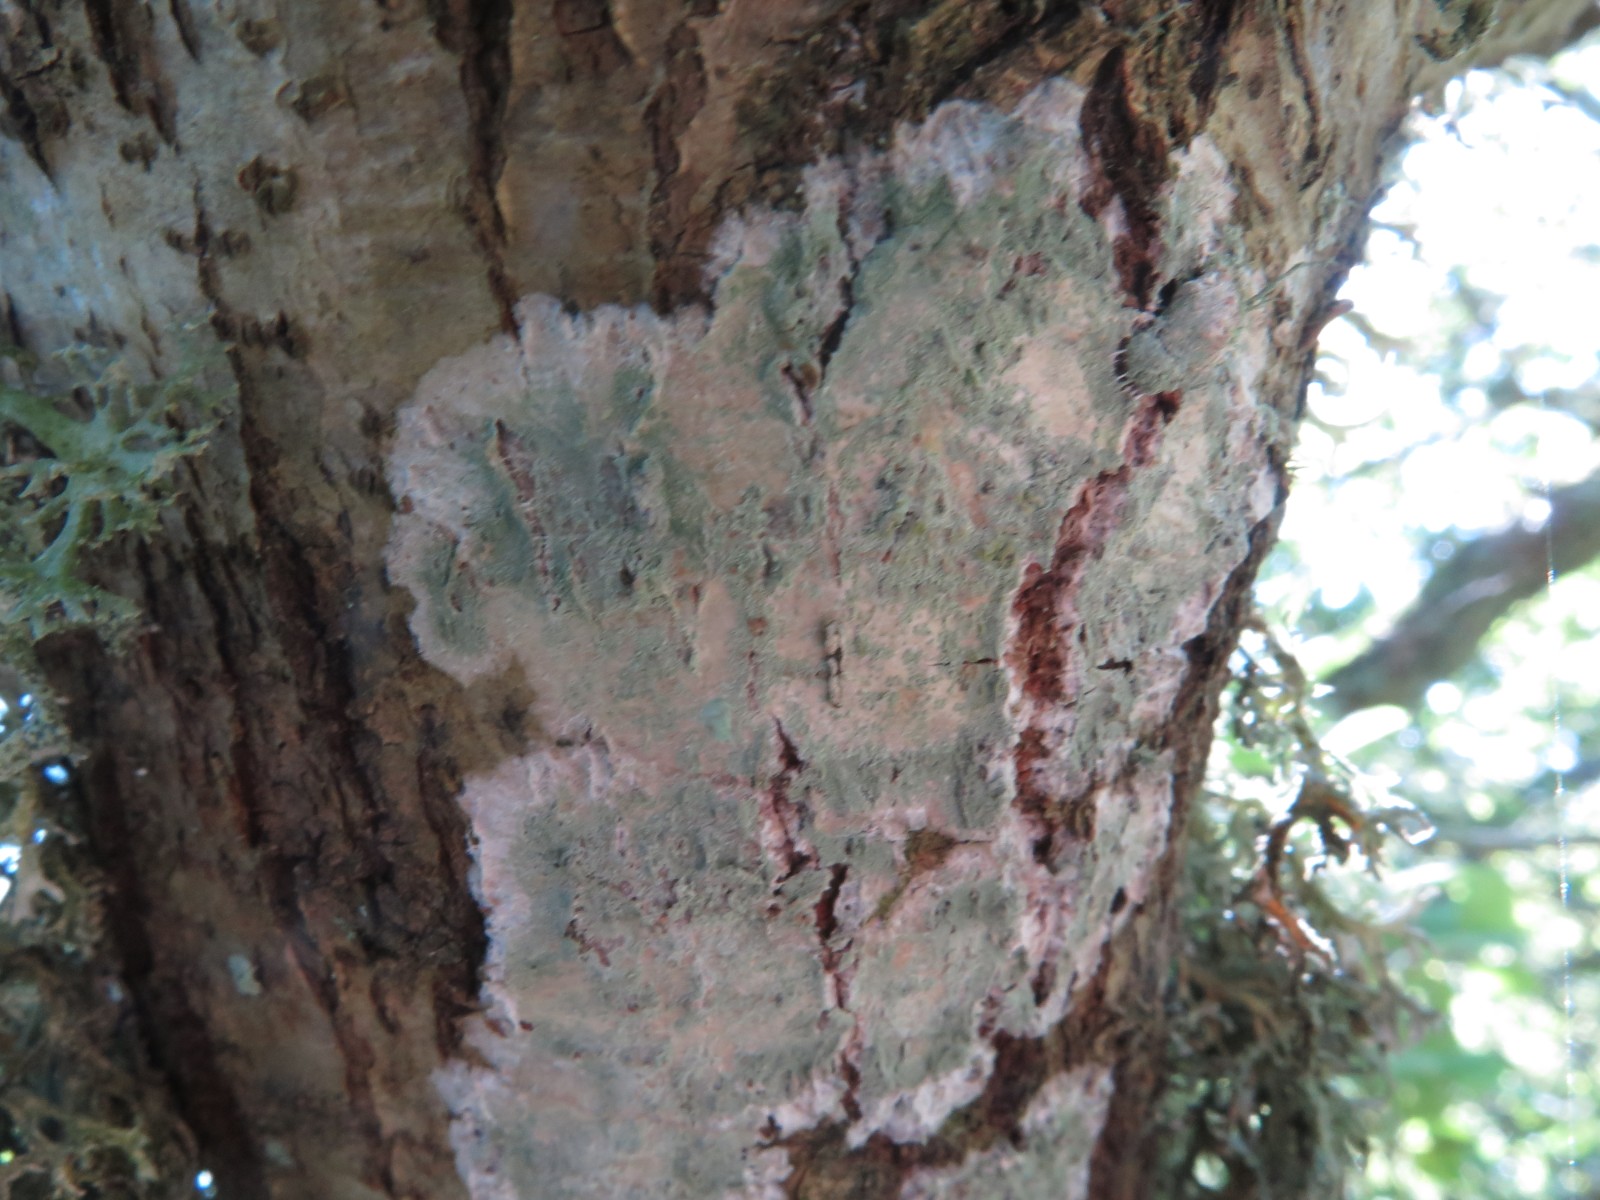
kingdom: Fungi
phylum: Ascomycota
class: Lecanoromycetes
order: Ostropales
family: Phlyctidaceae
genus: Phlyctis
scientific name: Phlyctis argena
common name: almindelig sølvlav
